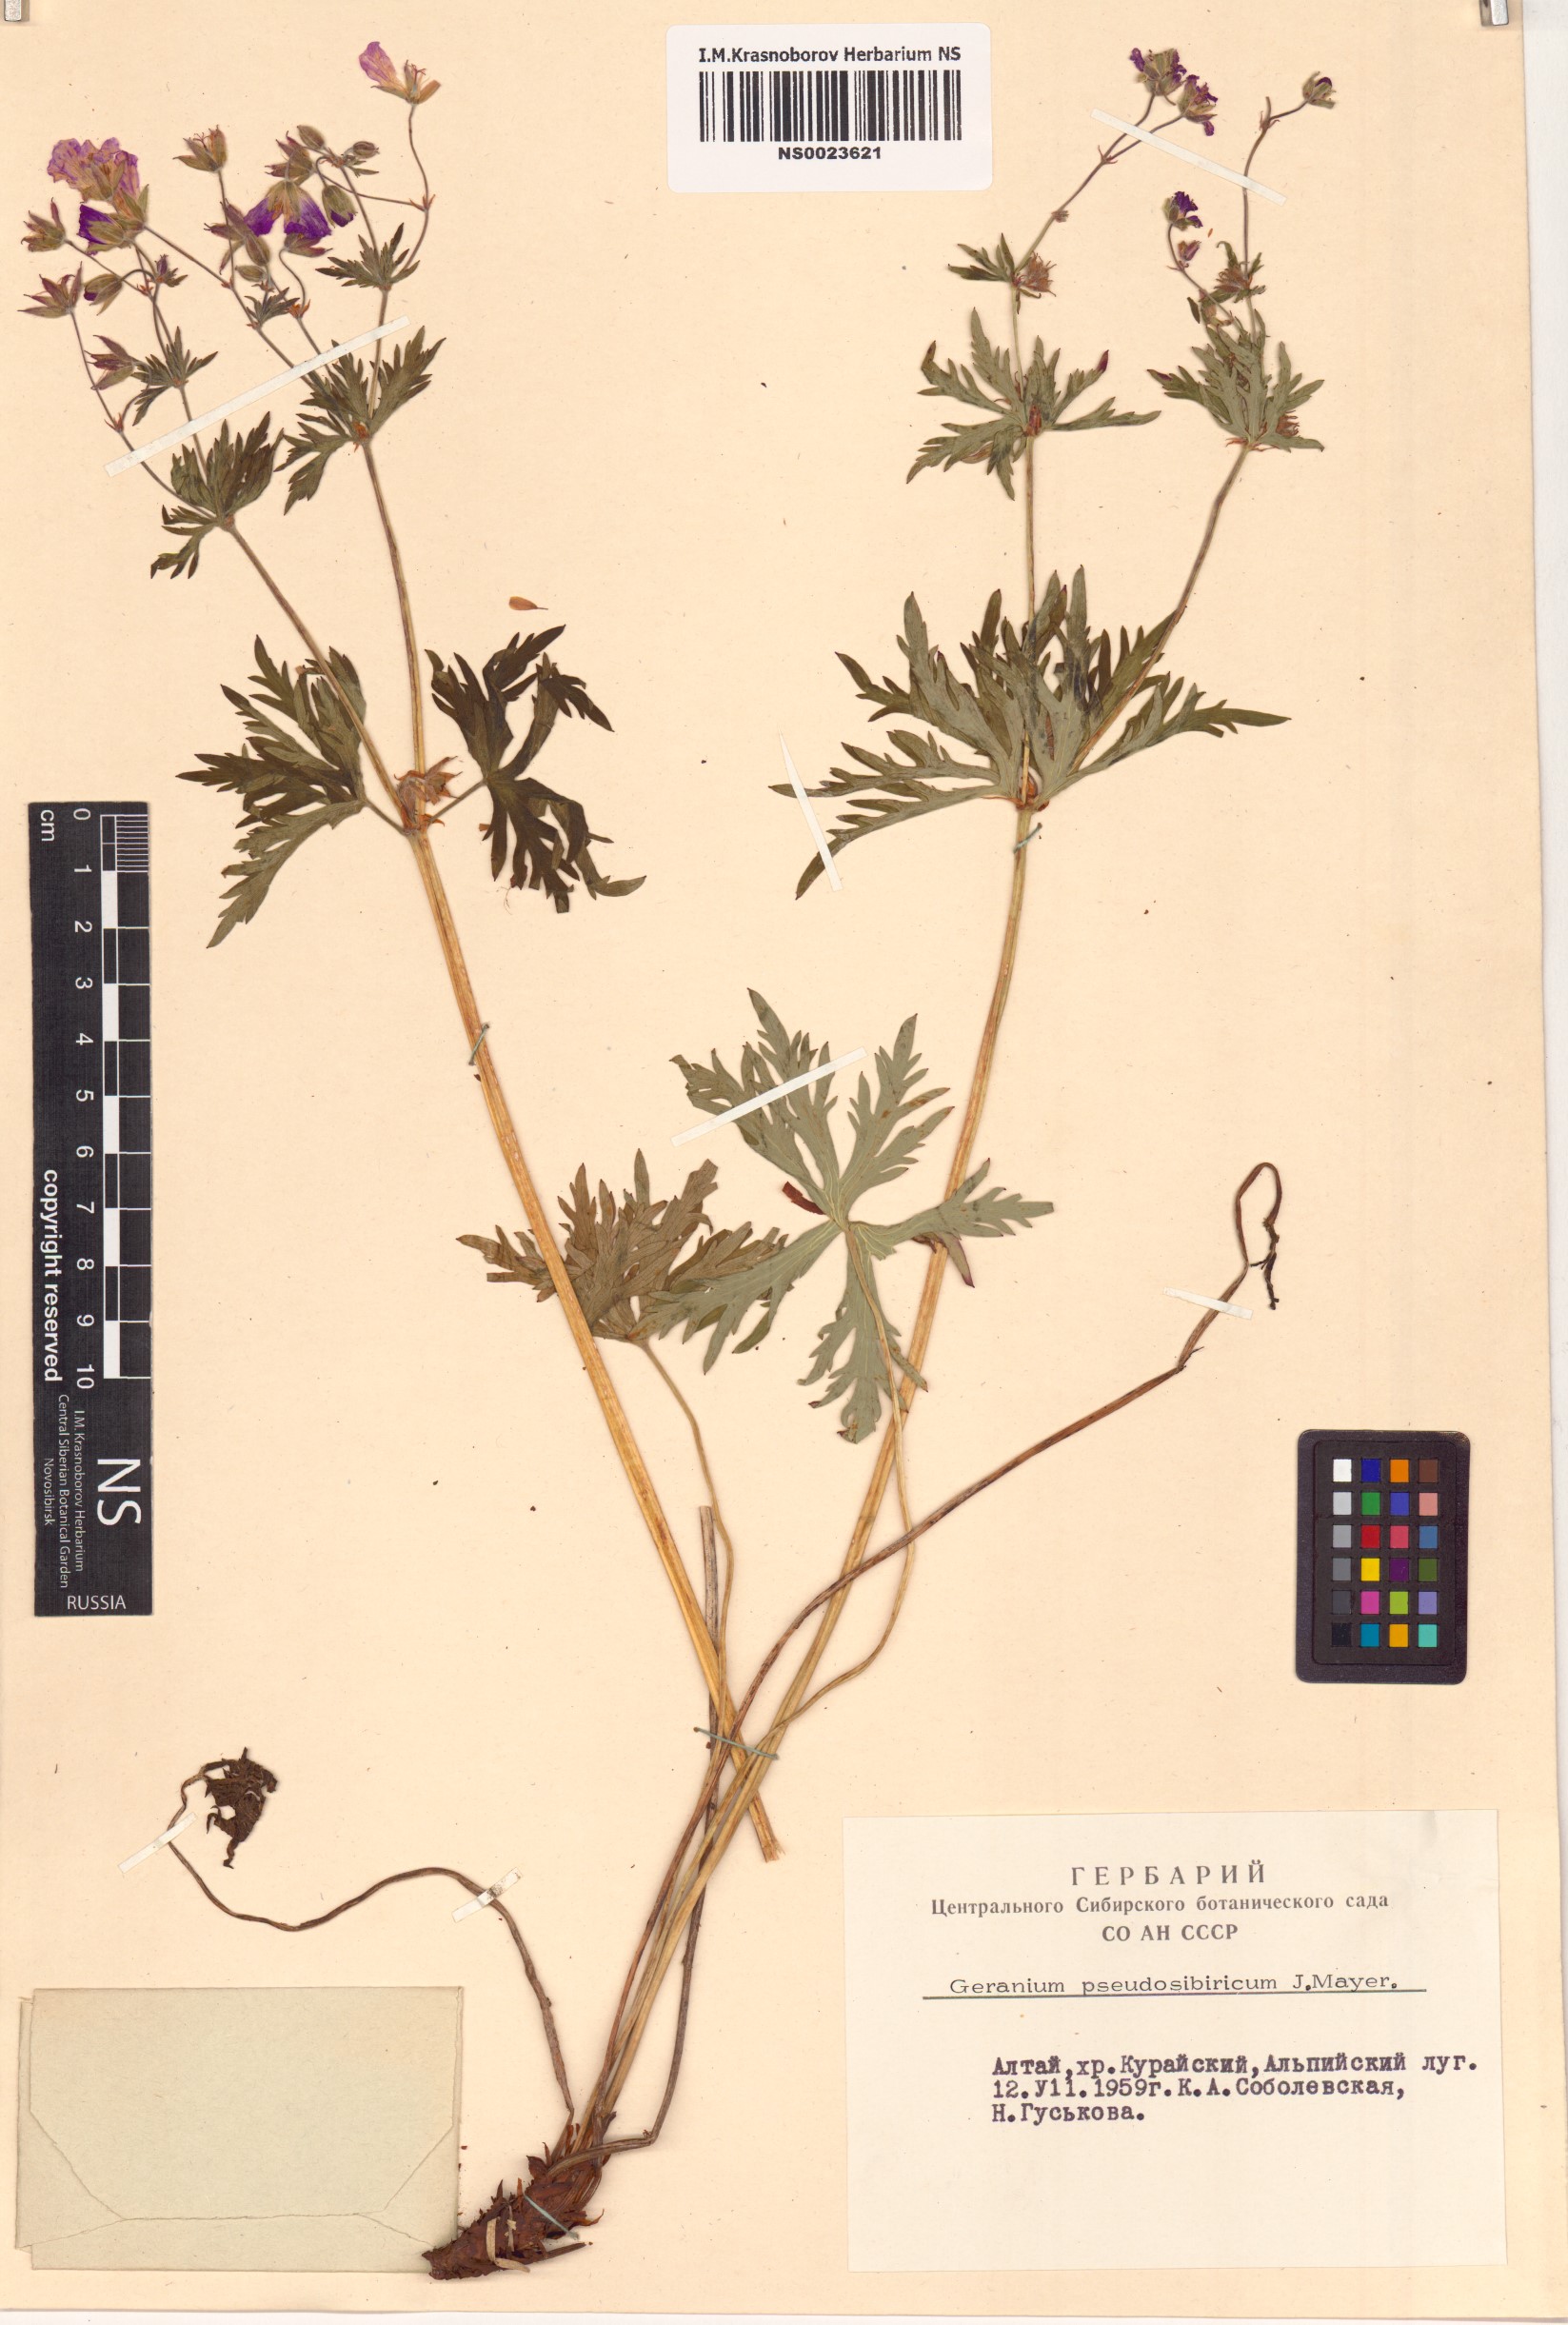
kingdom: Plantae
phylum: Tracheophyta
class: Magnoliopsida
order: Geraniales
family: Geraniaceae
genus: Geranium
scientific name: Geranium pseudosibiricum
